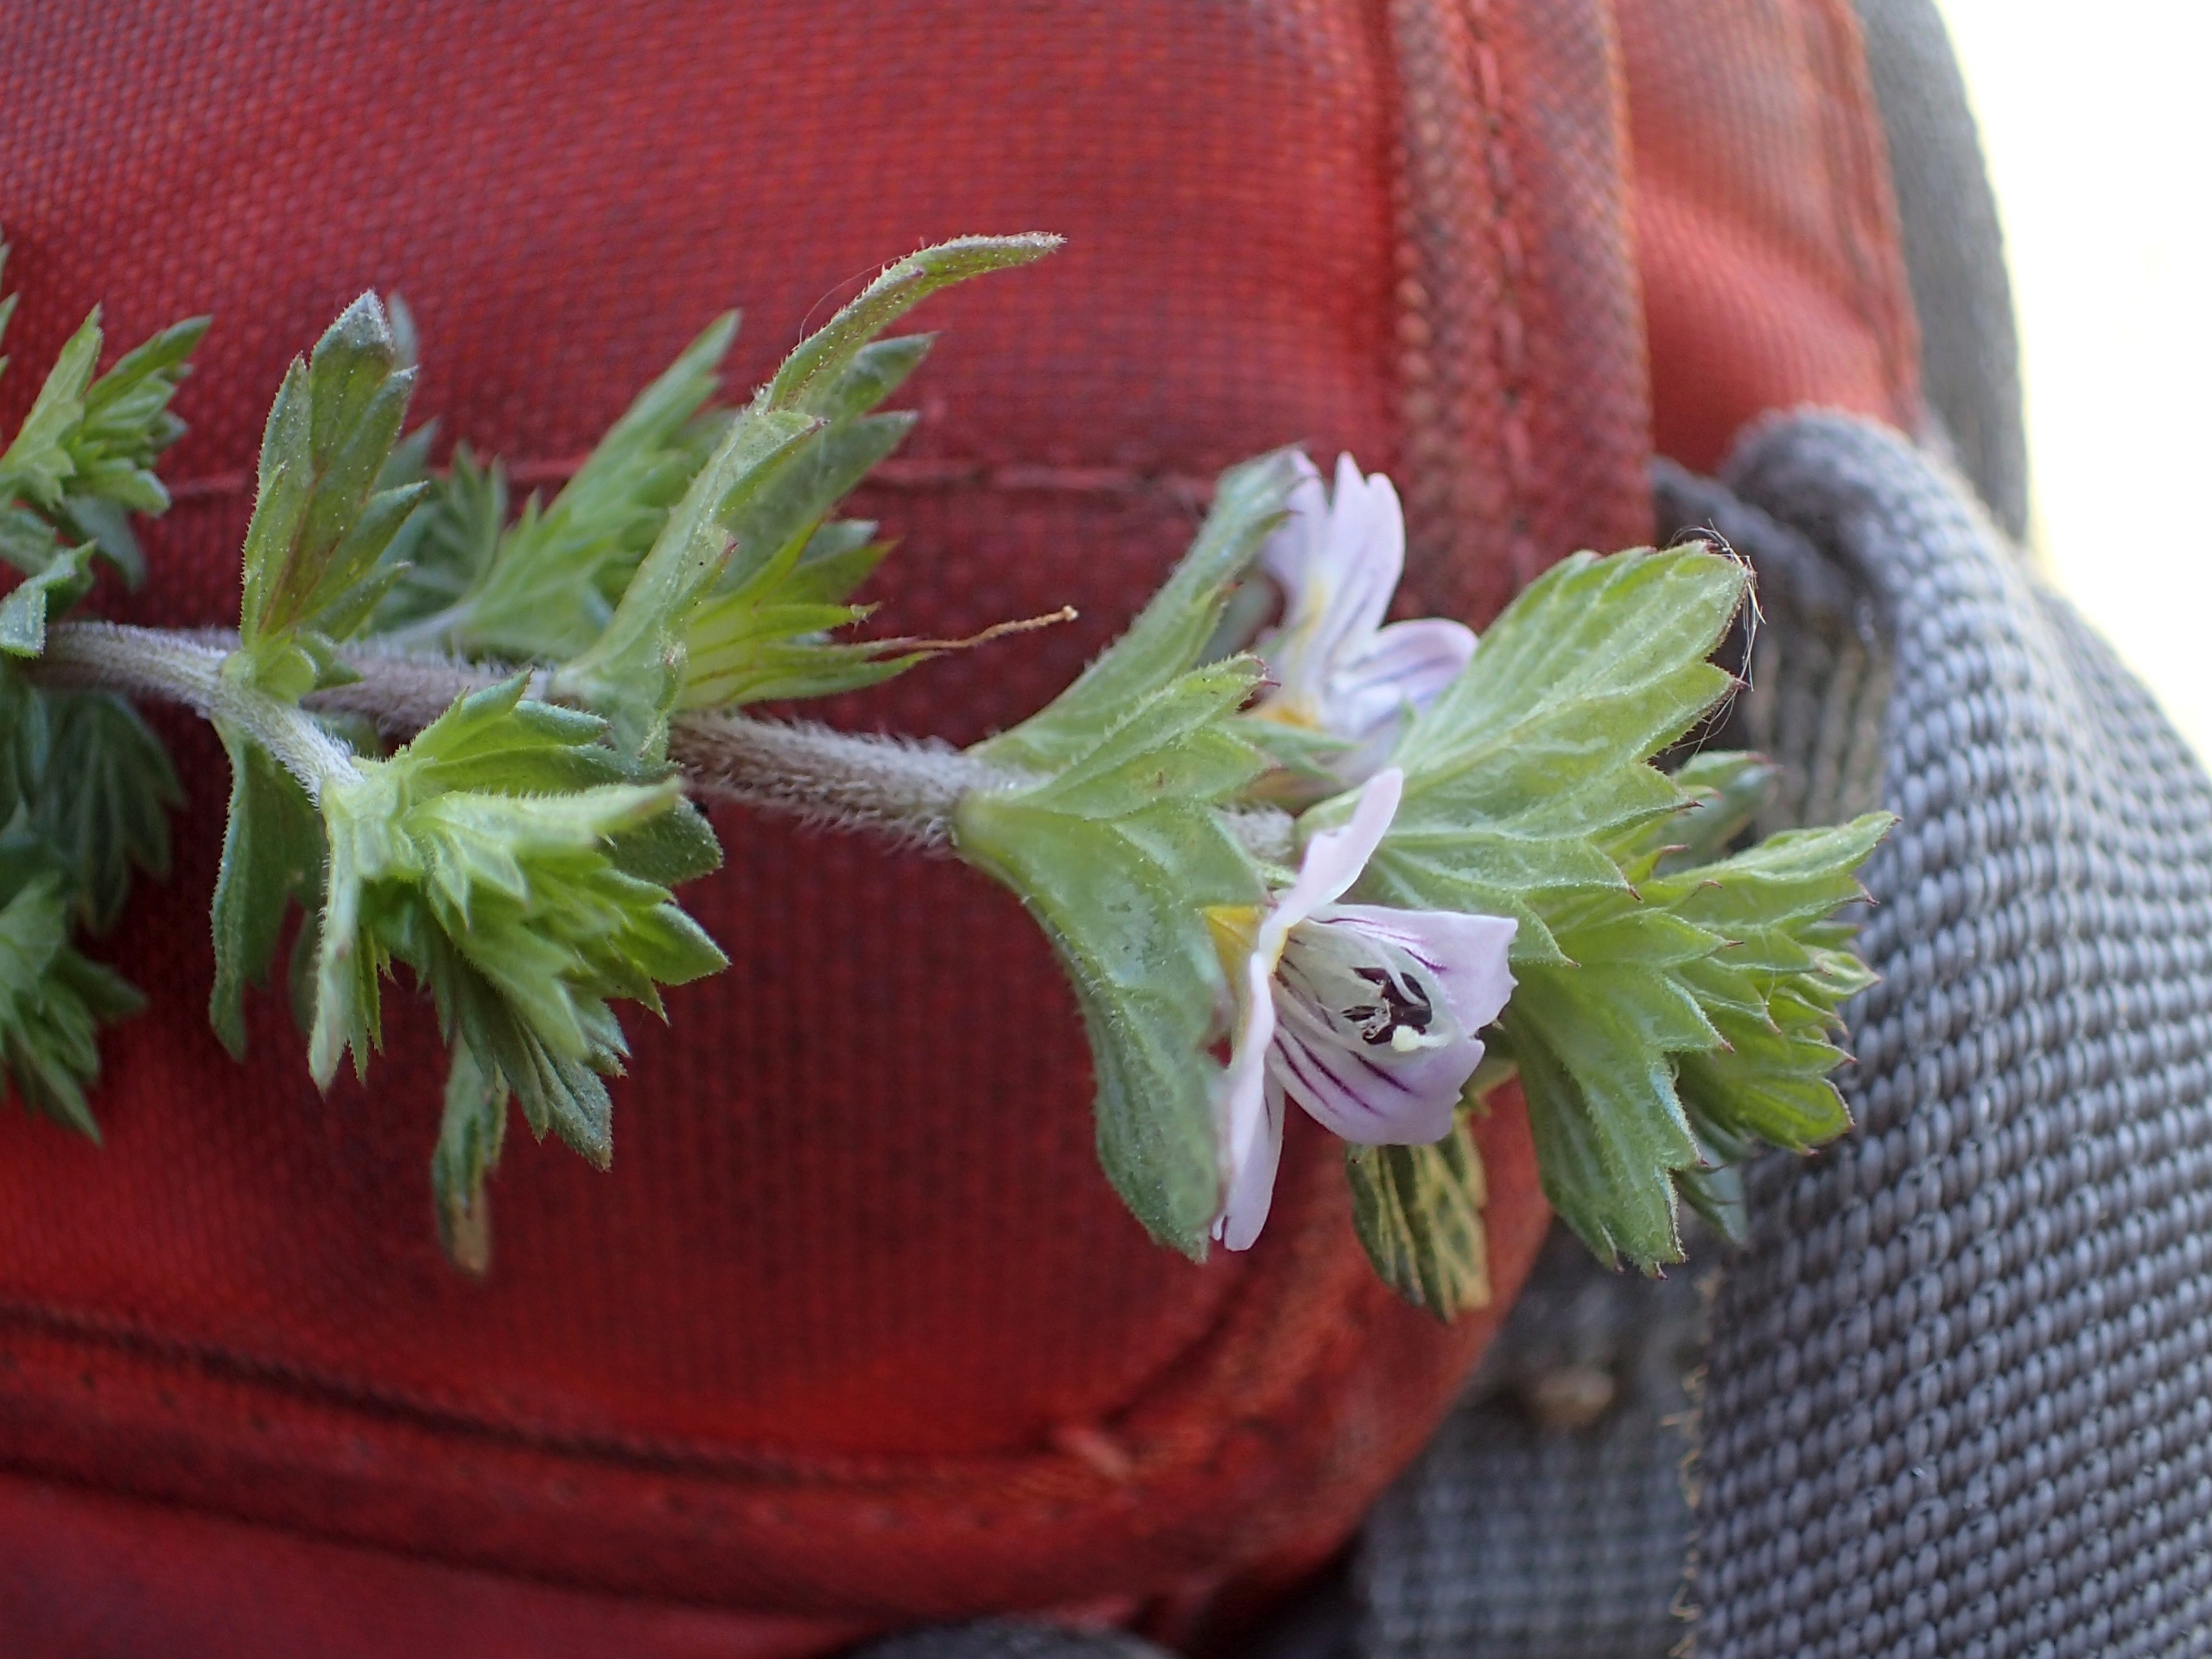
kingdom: Plantae
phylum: Tracheophyta
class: Magnoliopsida
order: Lamiales
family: Orobanchaceae
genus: Euphrasia
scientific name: Euphrasia nemorosa
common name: Kort øjentrøst
